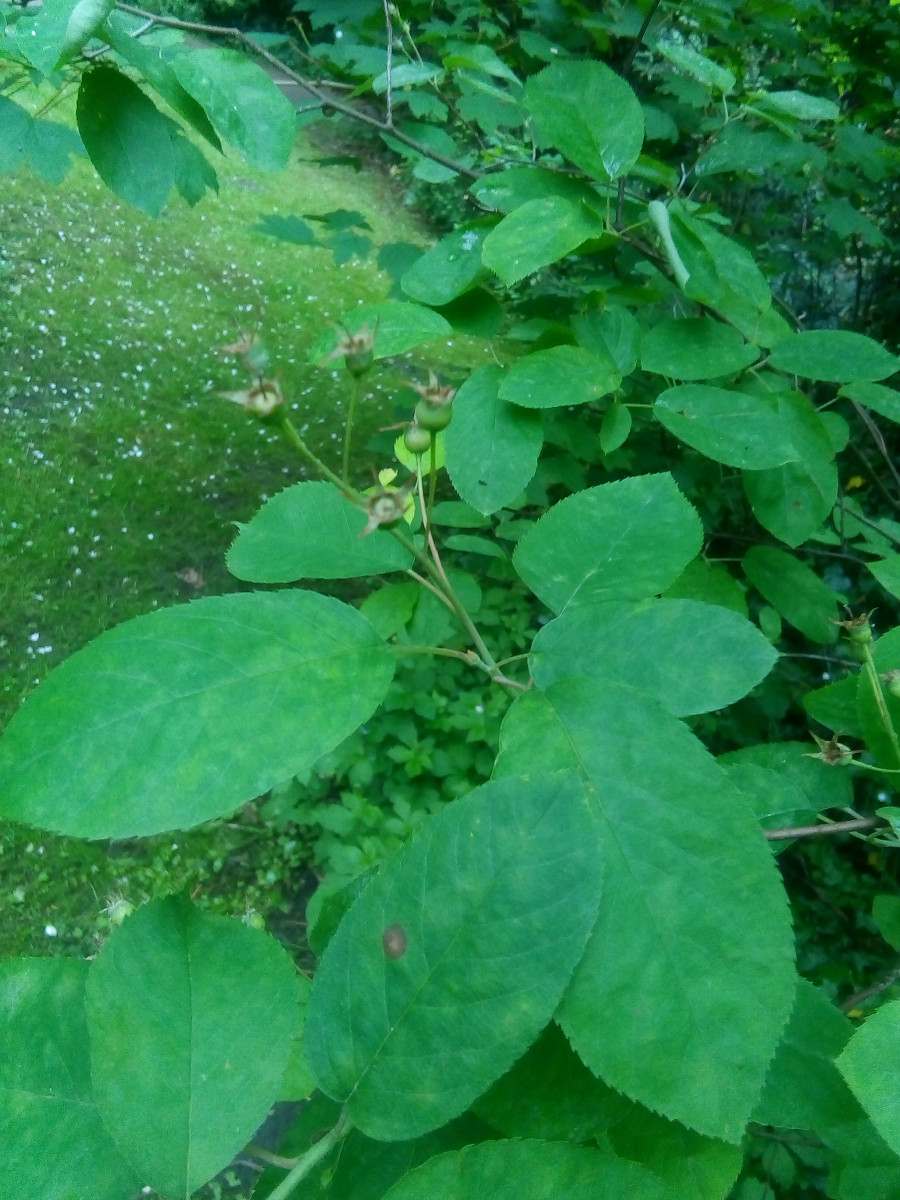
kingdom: Fungi
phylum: Ascomycota
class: Leotiomycetes
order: Helotiales
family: Erysiphaceae
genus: Podosphaera
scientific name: Podosphaera amelanchieris
